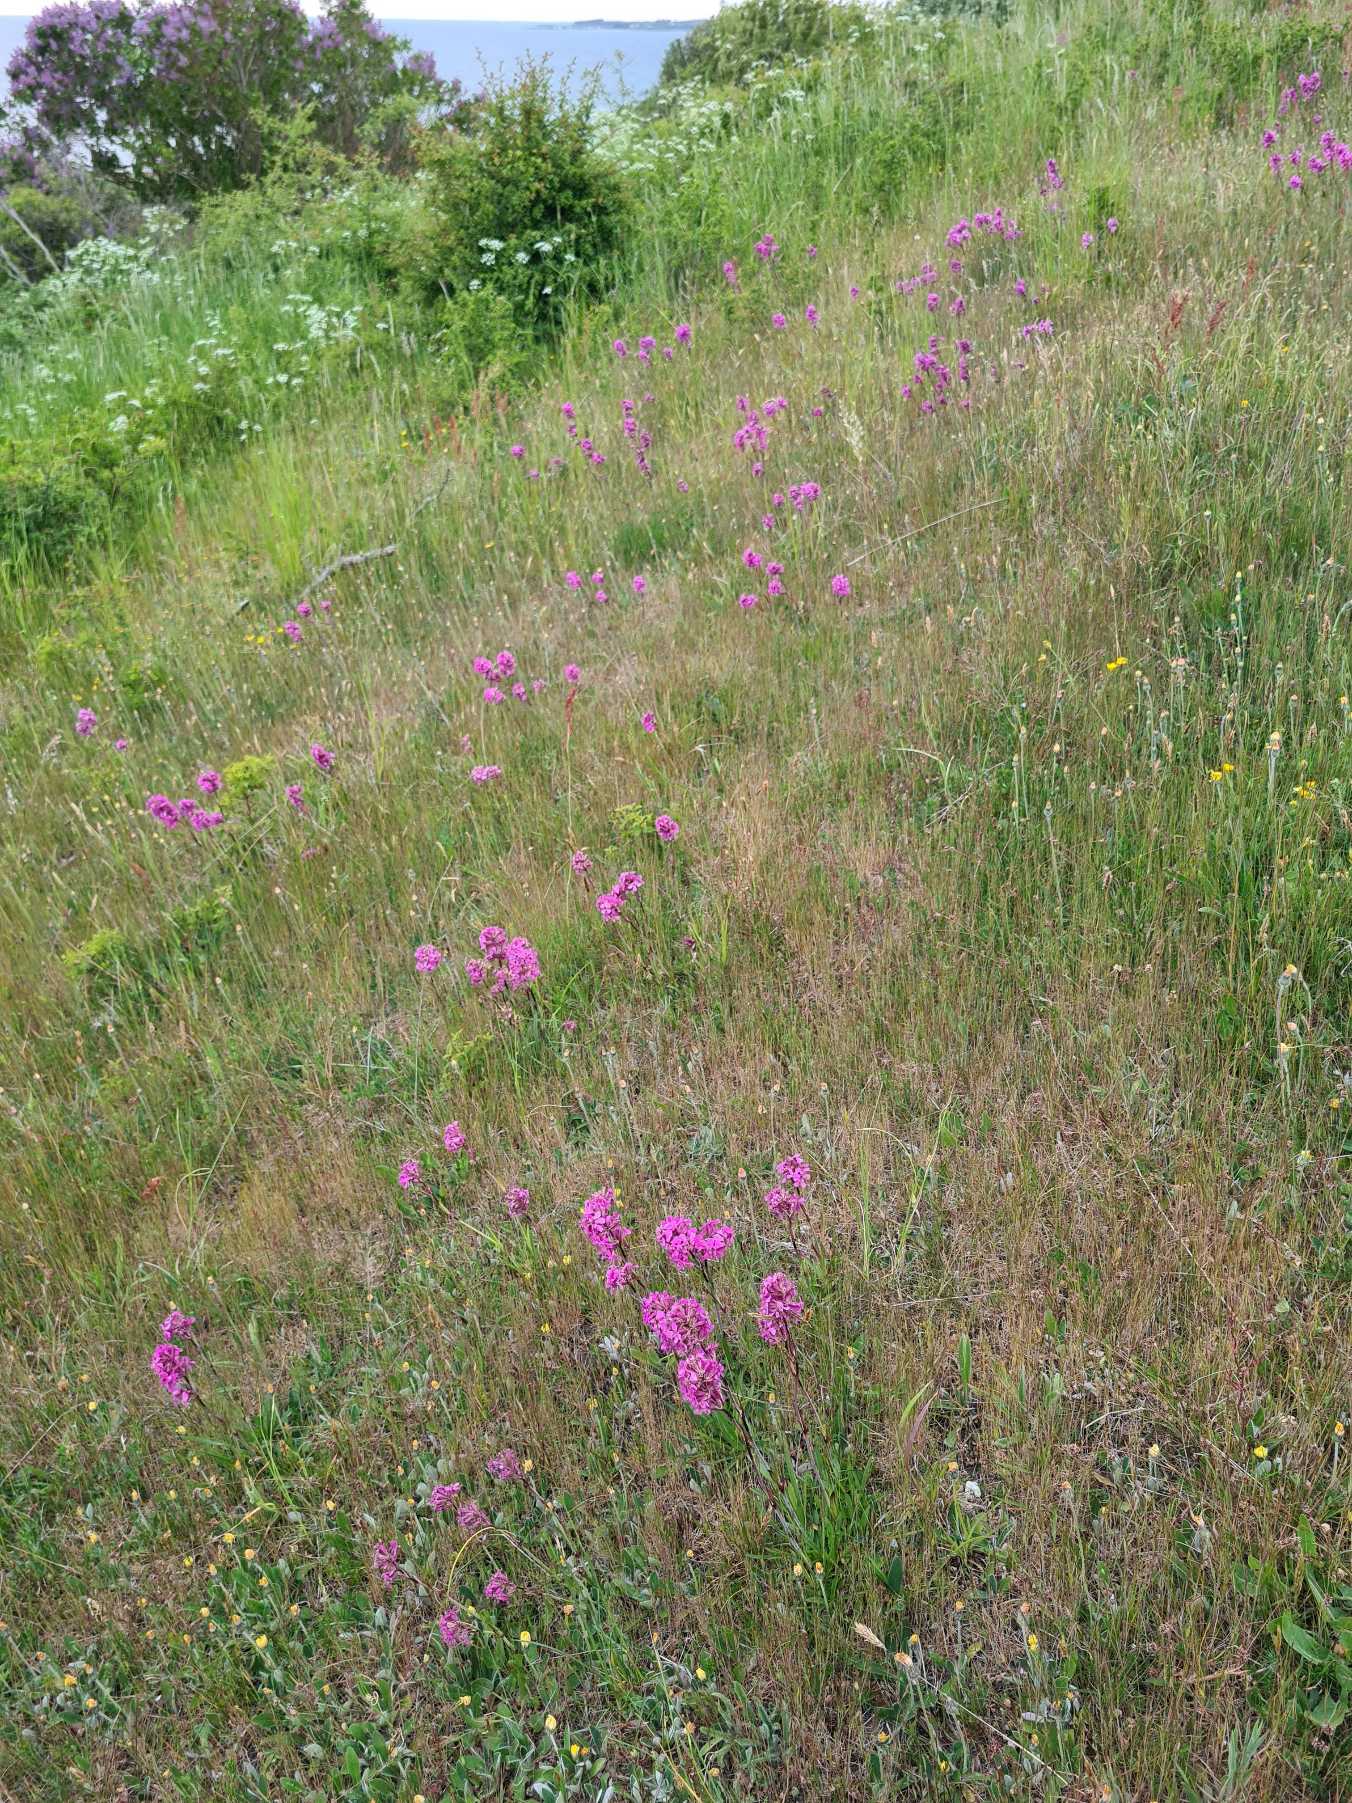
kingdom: Plantae
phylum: Tracheophyta
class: Magnoliopsida
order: Caryophyllales
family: Caryophyllaceae
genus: Viscaria
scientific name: Viscaria vulgaris
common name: Tjærenellike
